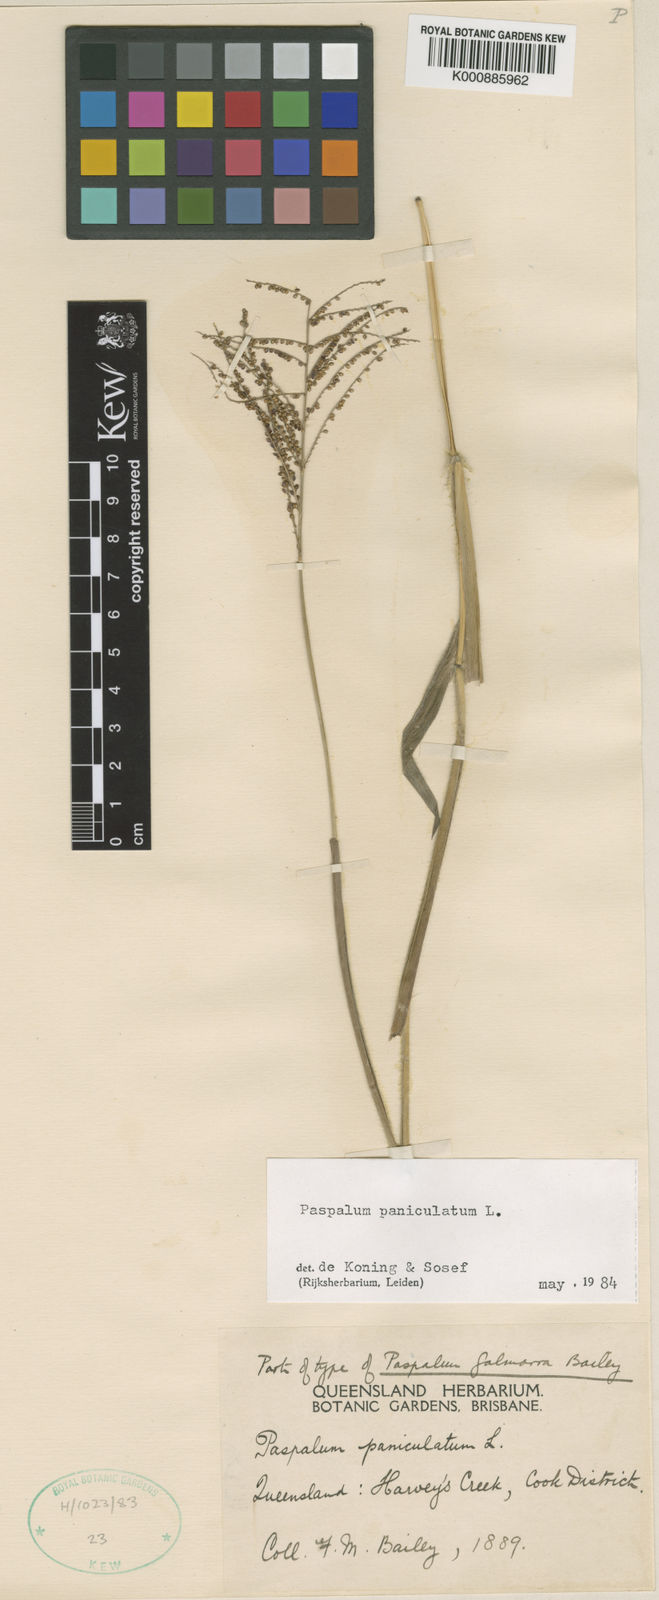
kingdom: Plantae
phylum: Tracheophyta
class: Liliopsida
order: Poales
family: Poaceae
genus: Paspalum
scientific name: Paspalum paniculatum
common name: Arrocillo
